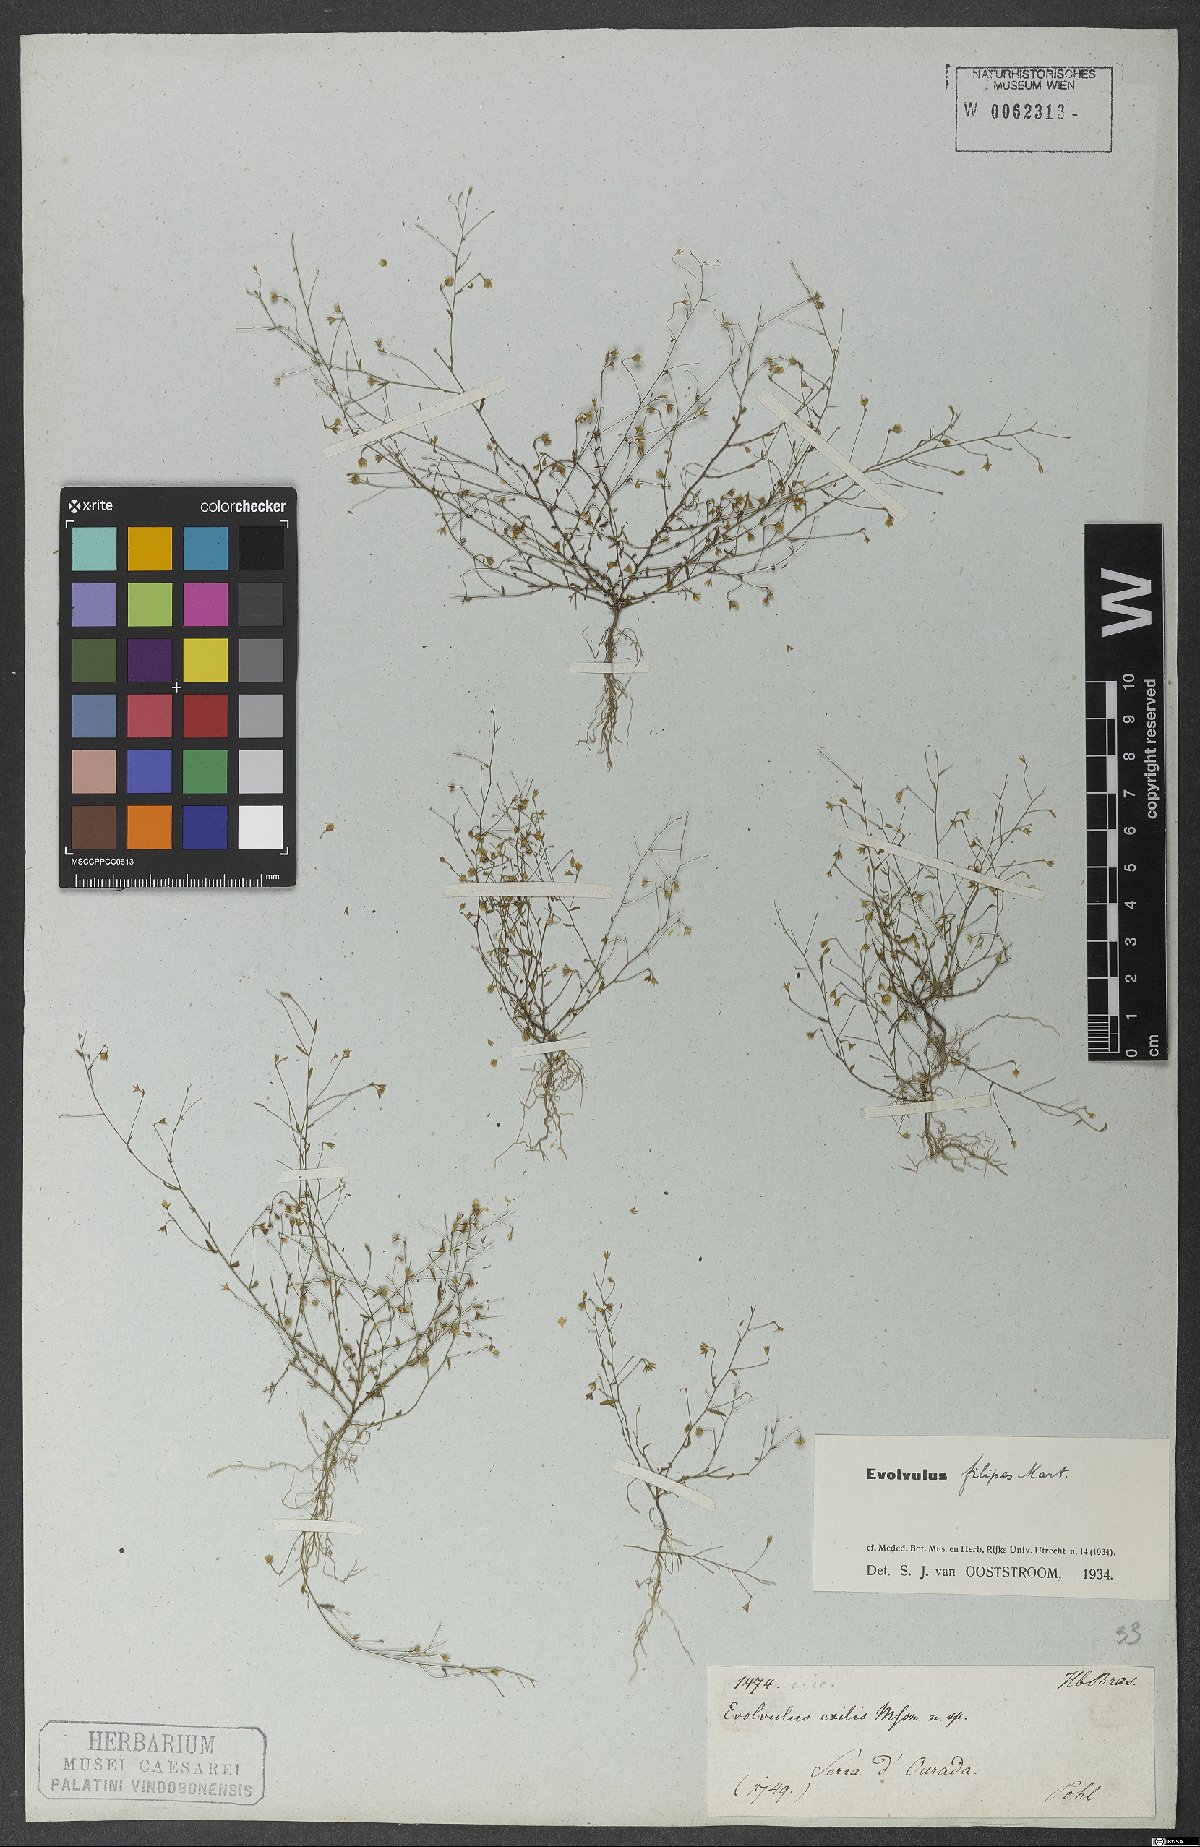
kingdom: Plantae
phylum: Tracheophyta
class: Magnoliopsida
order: Solanales
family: Convolvulaceae
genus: Evolvulus
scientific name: Evolvulus filipes
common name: Maryland dwarf morning-glory
